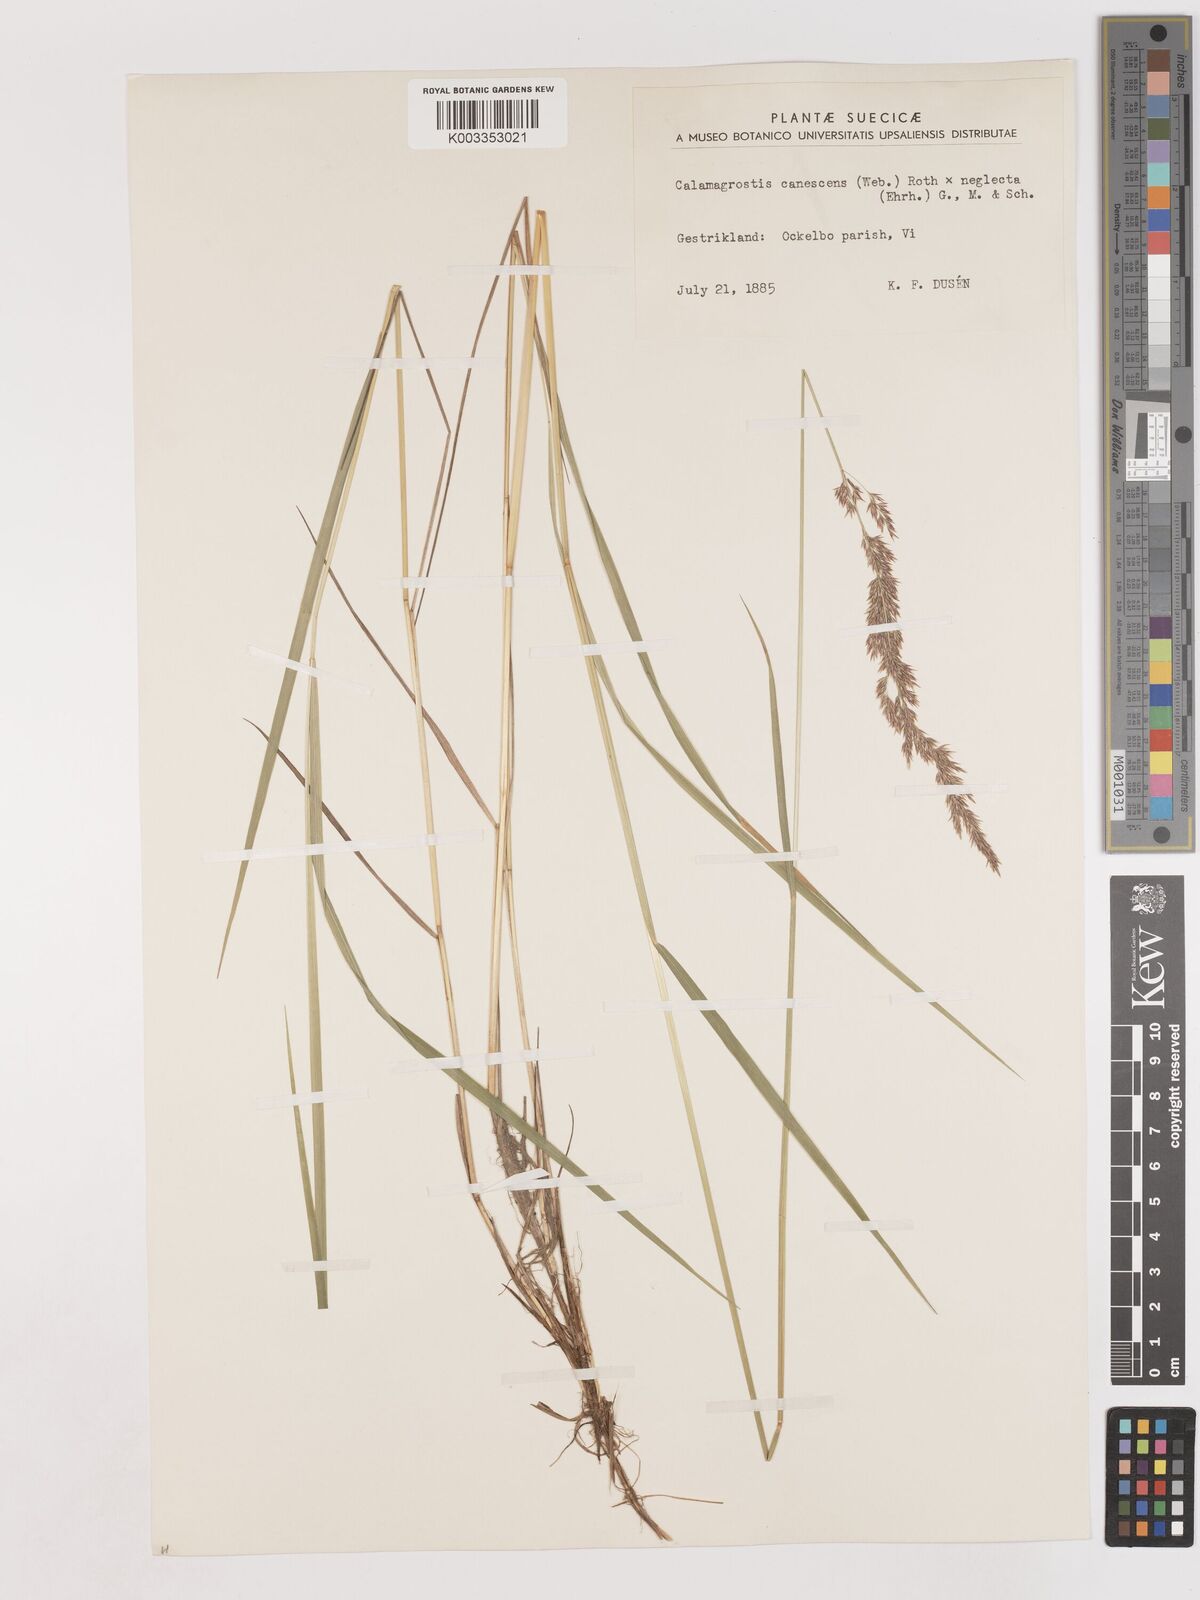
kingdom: Plantae
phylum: Tracheophyta
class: Liliopsida
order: Poales
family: Poaceae
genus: Calamagrostis
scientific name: Calamagrostis canescens
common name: Purple small-reed
